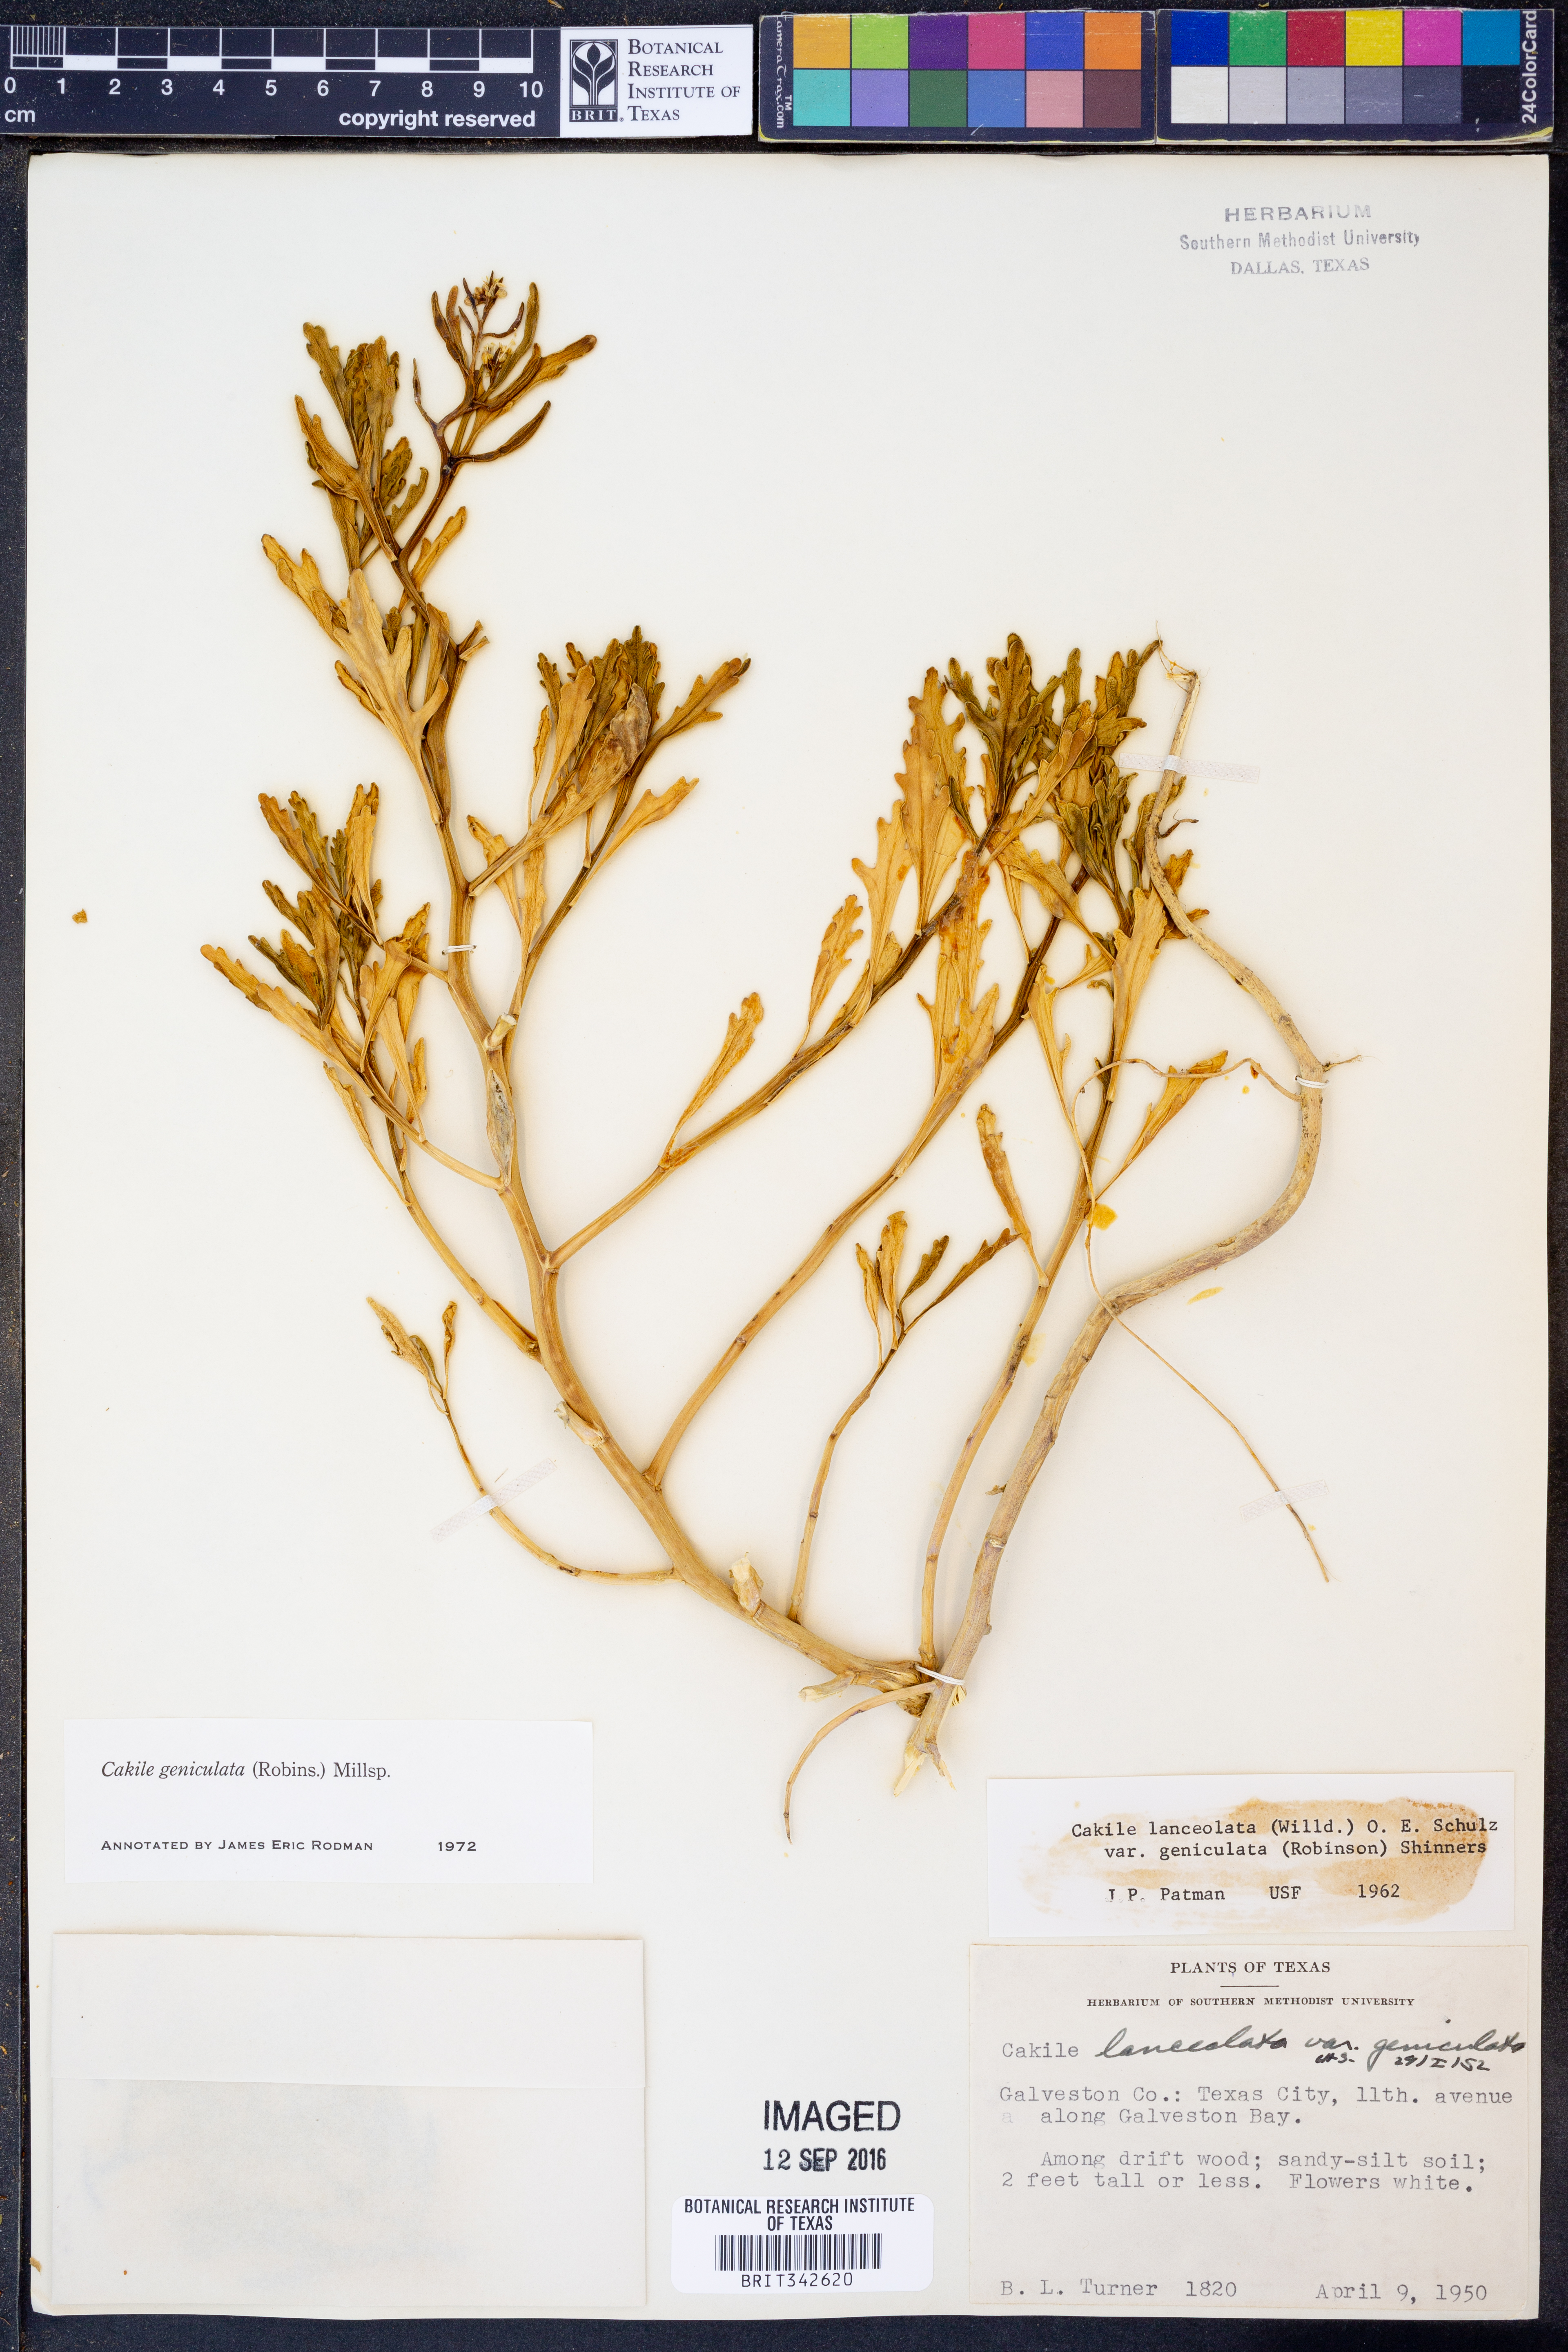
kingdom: Plantae
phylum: Tracheophyta
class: Magnoliopsida
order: Brassicales
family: Brassicaceae
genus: Cakile
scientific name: Cakile geniculata
